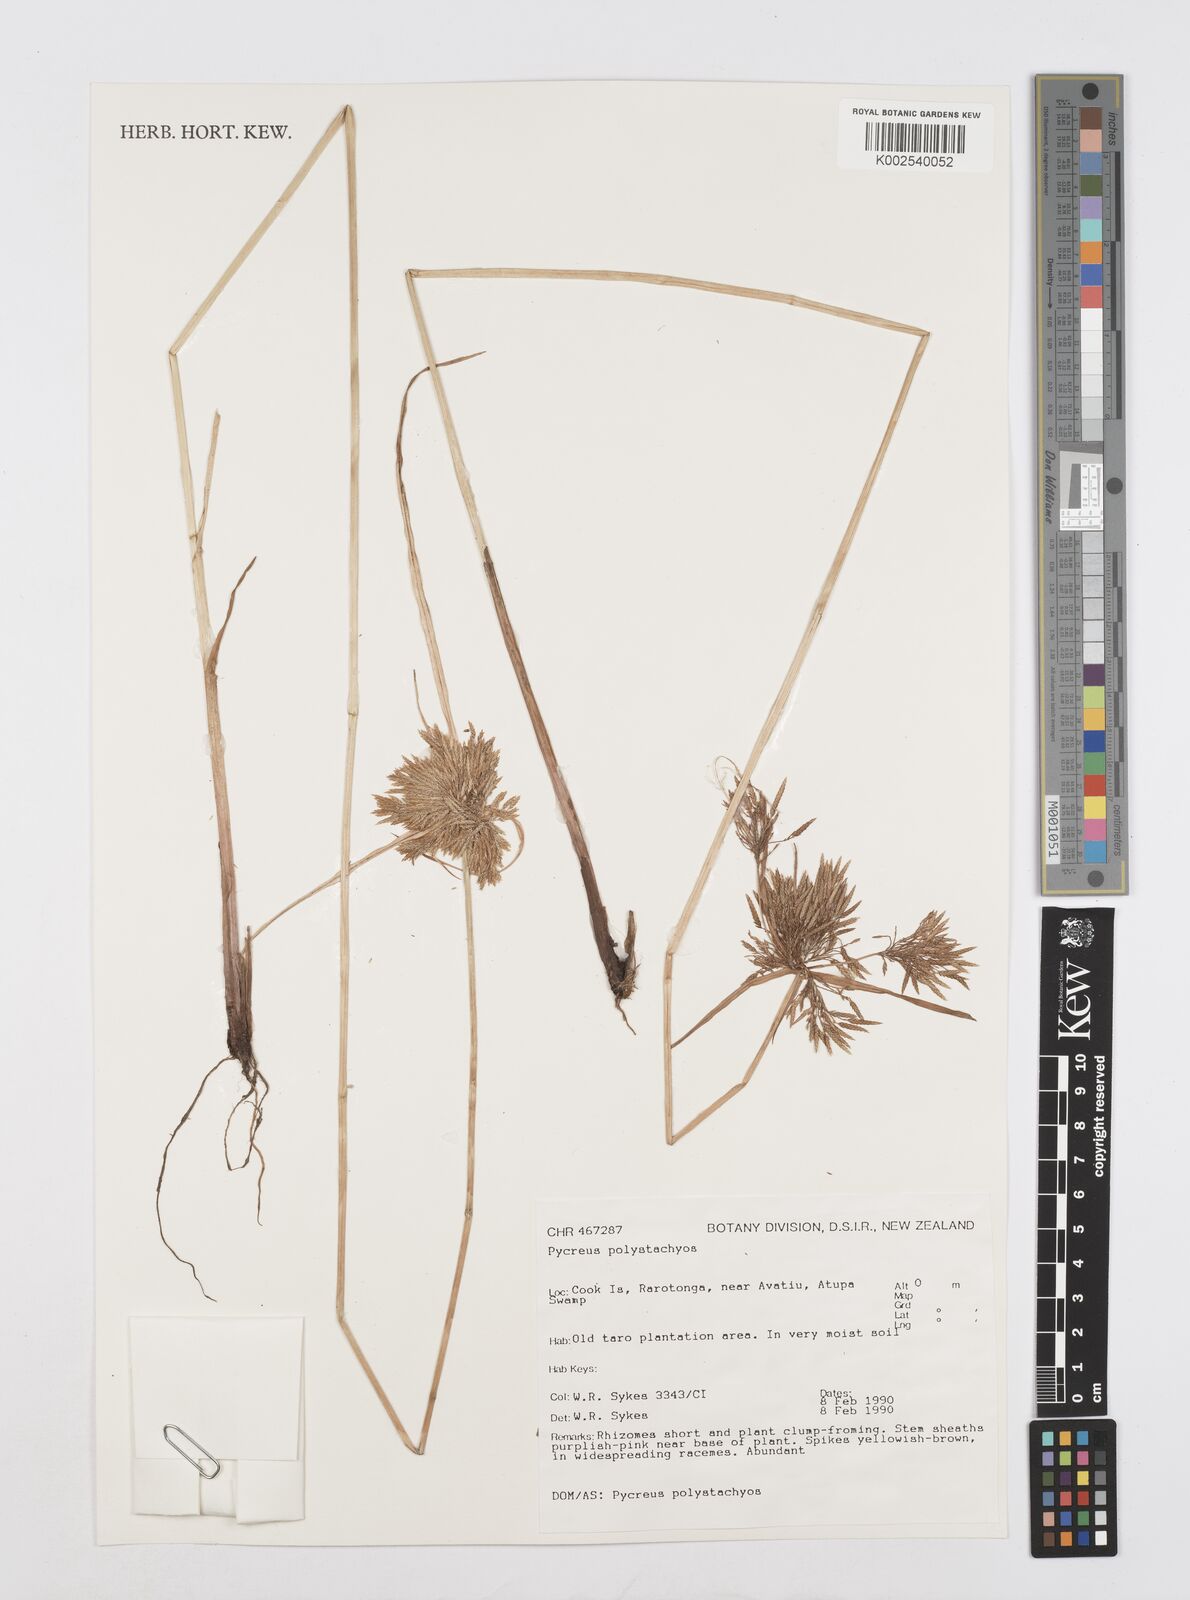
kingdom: Plantae
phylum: Tracheophyta
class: Liliopsida
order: Poales
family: Cyperaceae
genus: Cyperus
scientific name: Cyperus polystachyos
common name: Bunchy flat sedge
